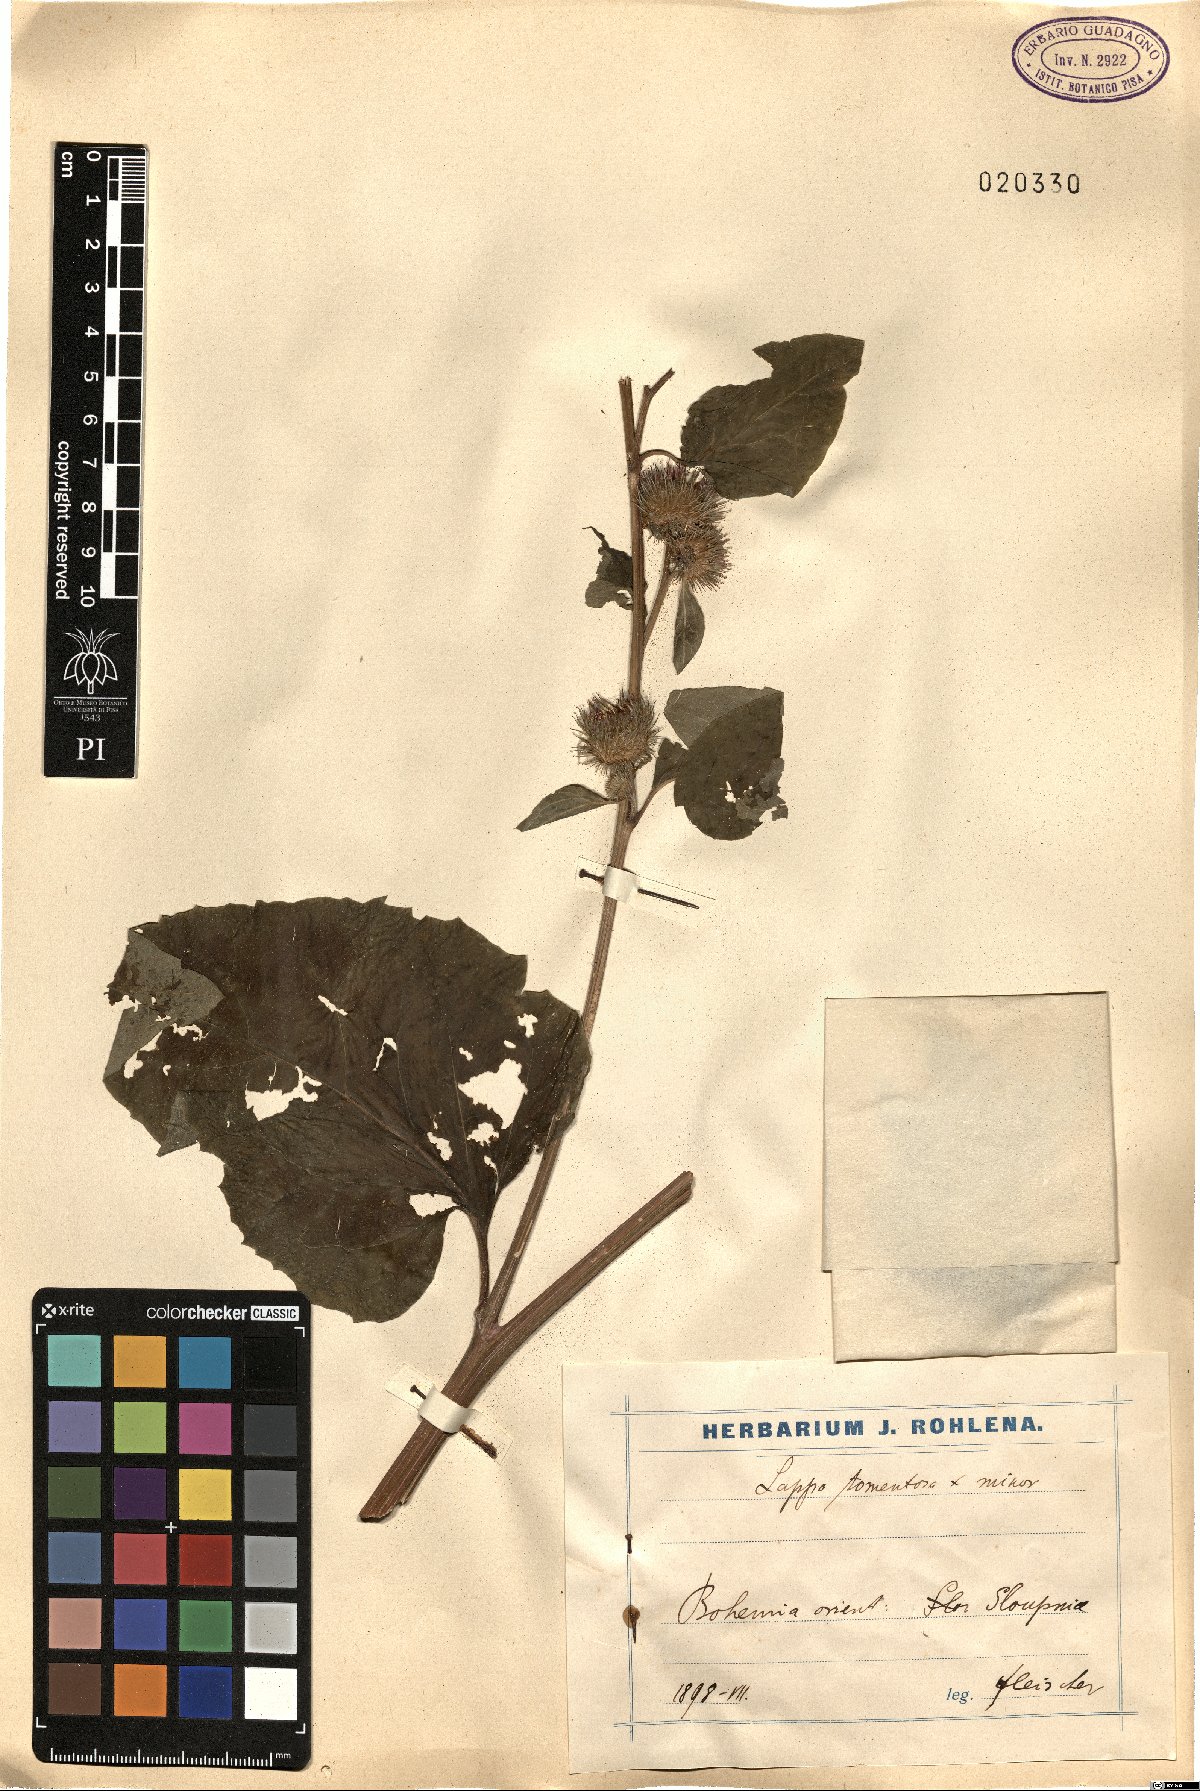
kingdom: Plantae
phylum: Tracheophyta
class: Magnoliopsida
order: Asterales
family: Asteraceae
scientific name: Asteraceae
